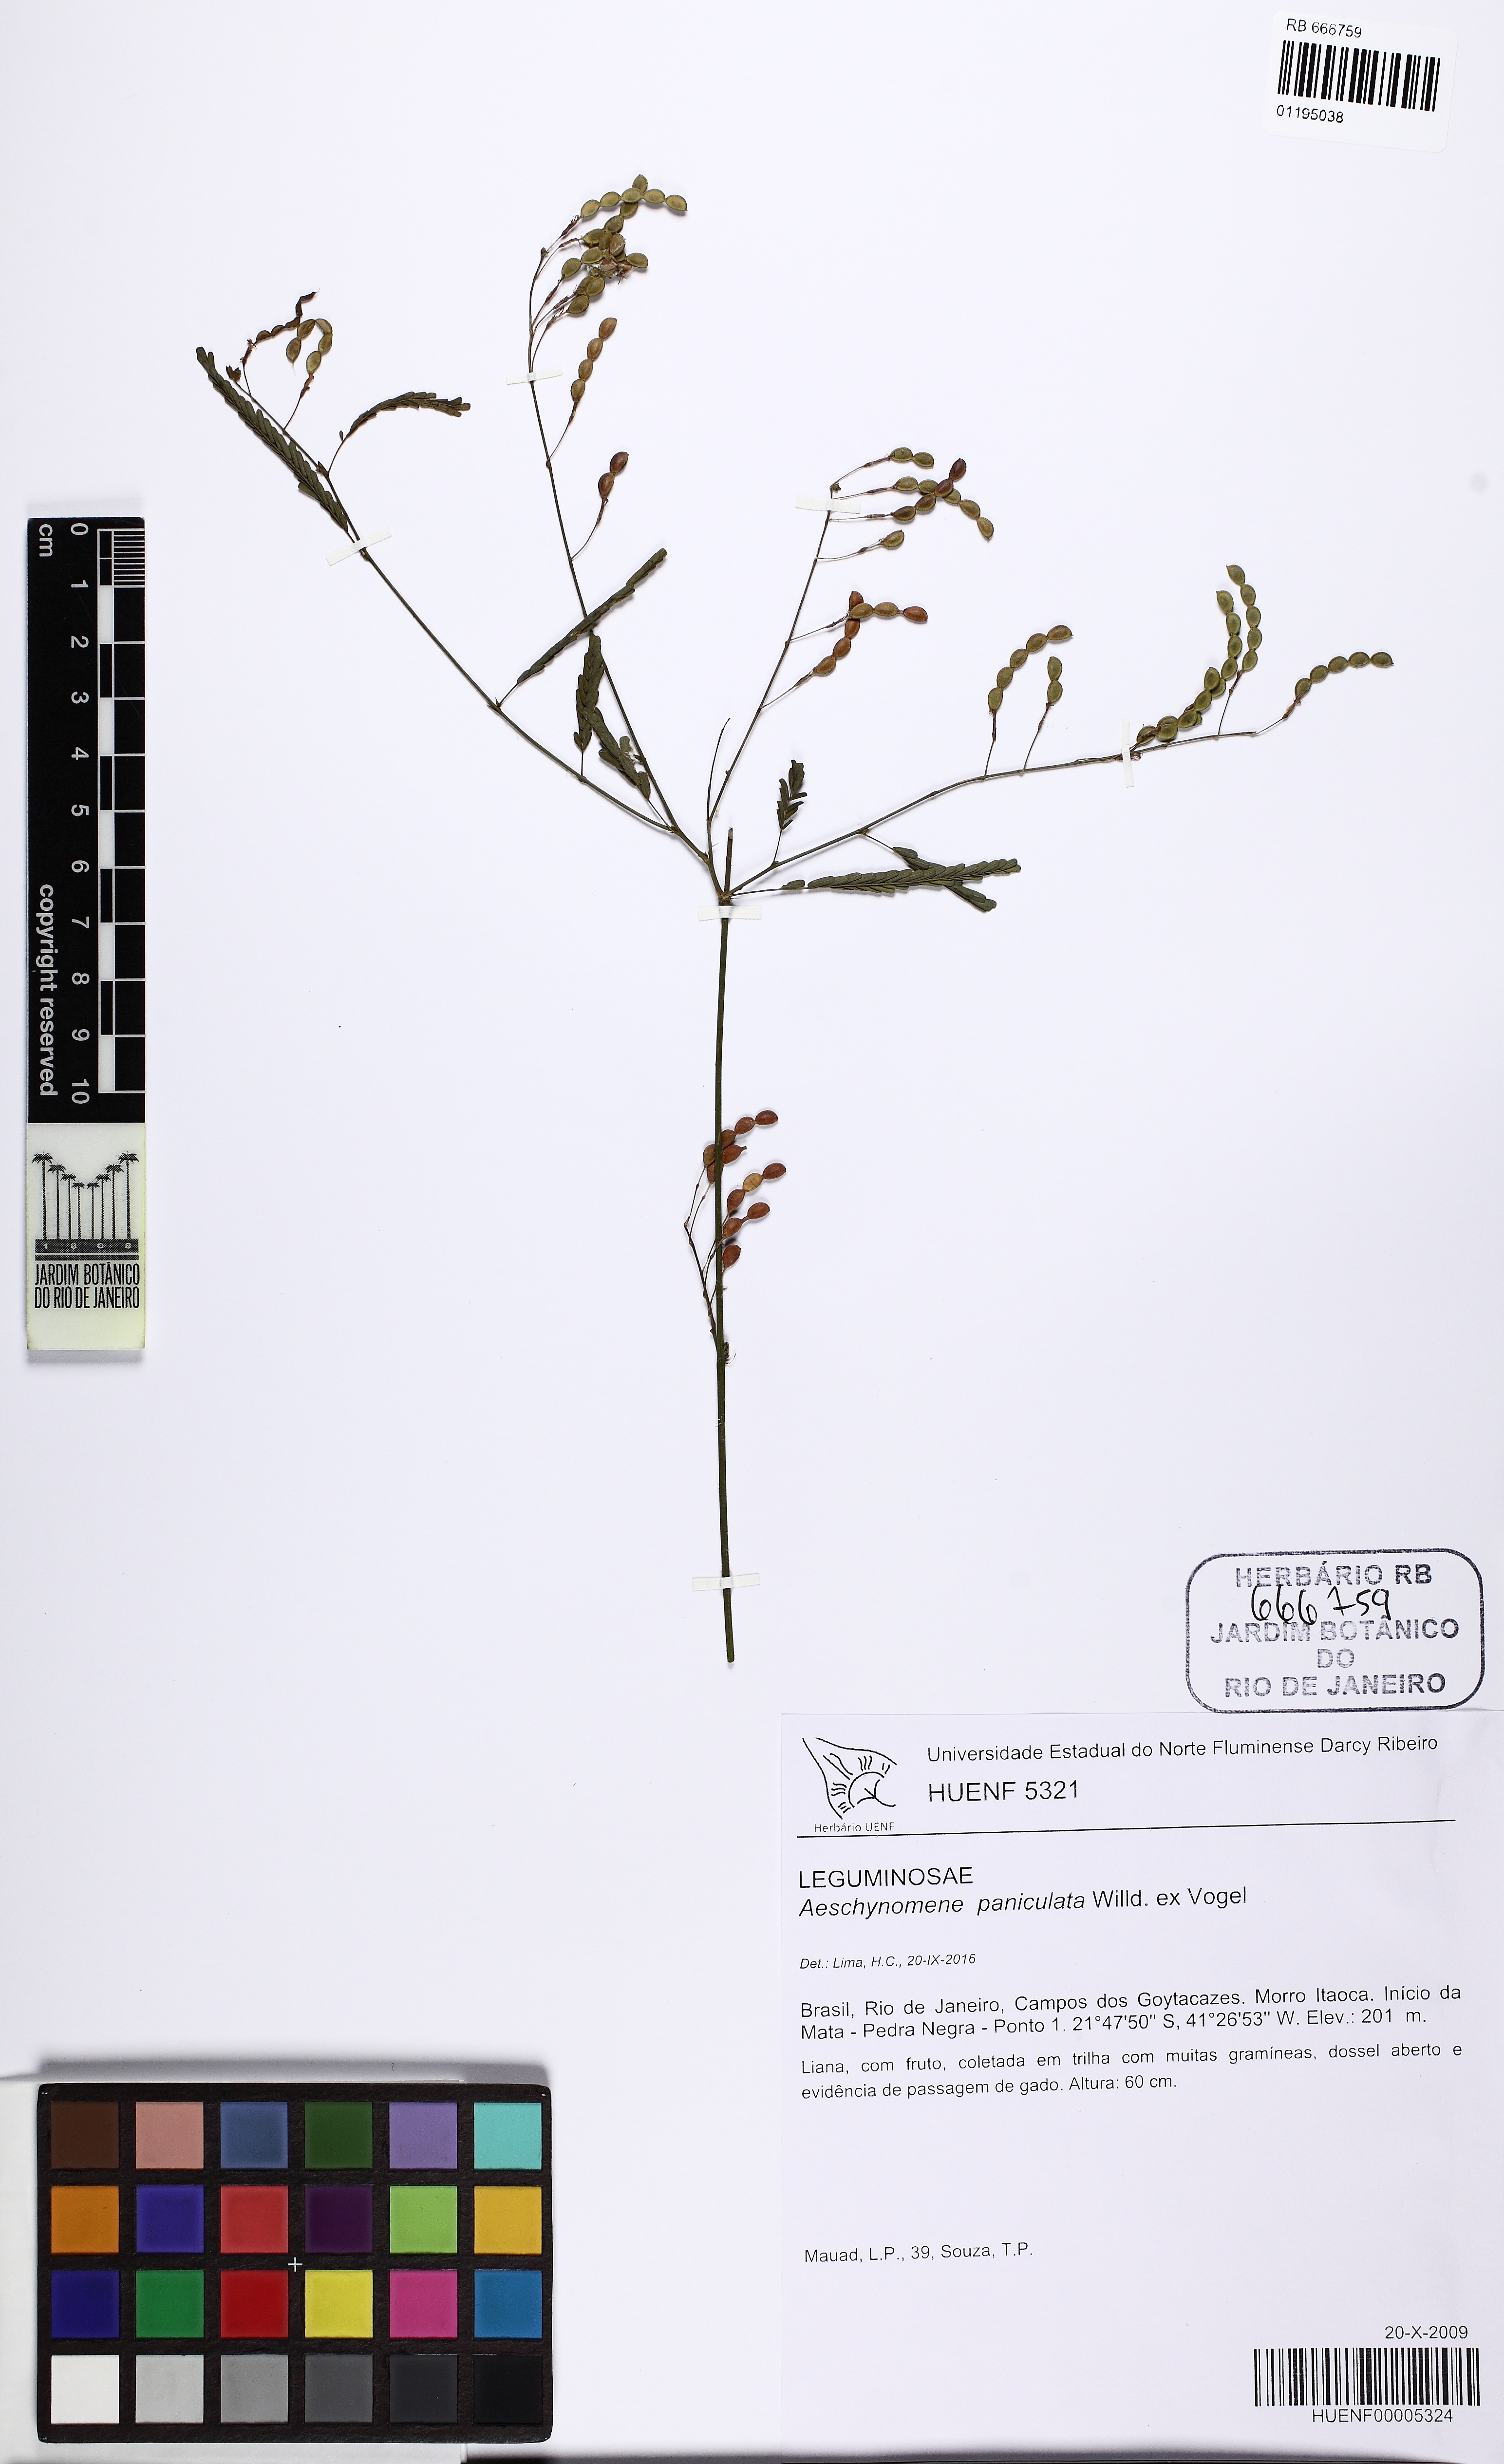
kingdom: Plantae
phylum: Tracheophyta
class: Magnoliopsida
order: Fabales
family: Fabaceae
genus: Ctenodon
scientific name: Ctenodon paucifolius
